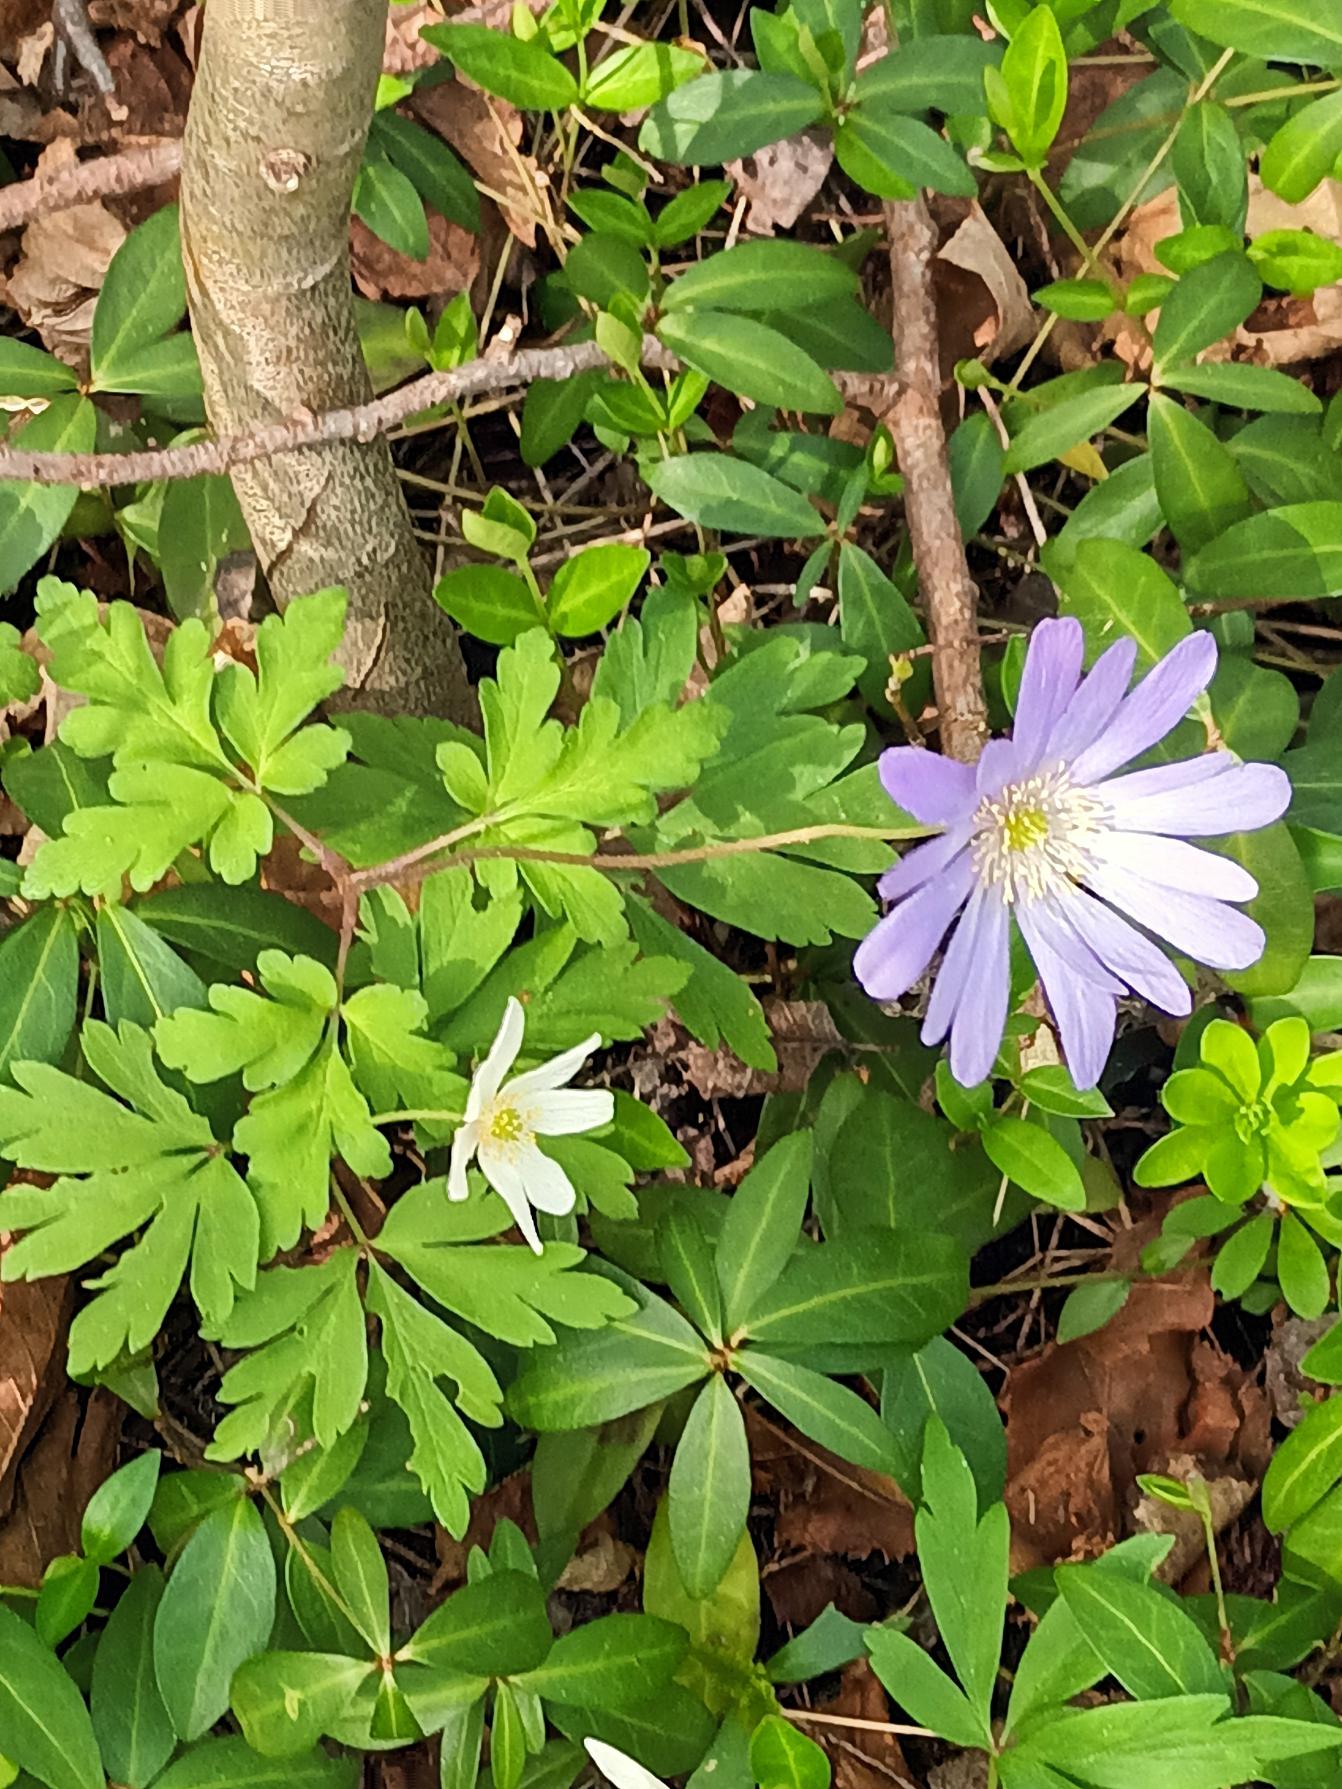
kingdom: Plantae
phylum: Tracheophyta
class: Magnoliopsida
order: Ranunculales
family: Ranunculaceae
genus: Anemone
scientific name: Anemone blanda
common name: Balkan-anemone
